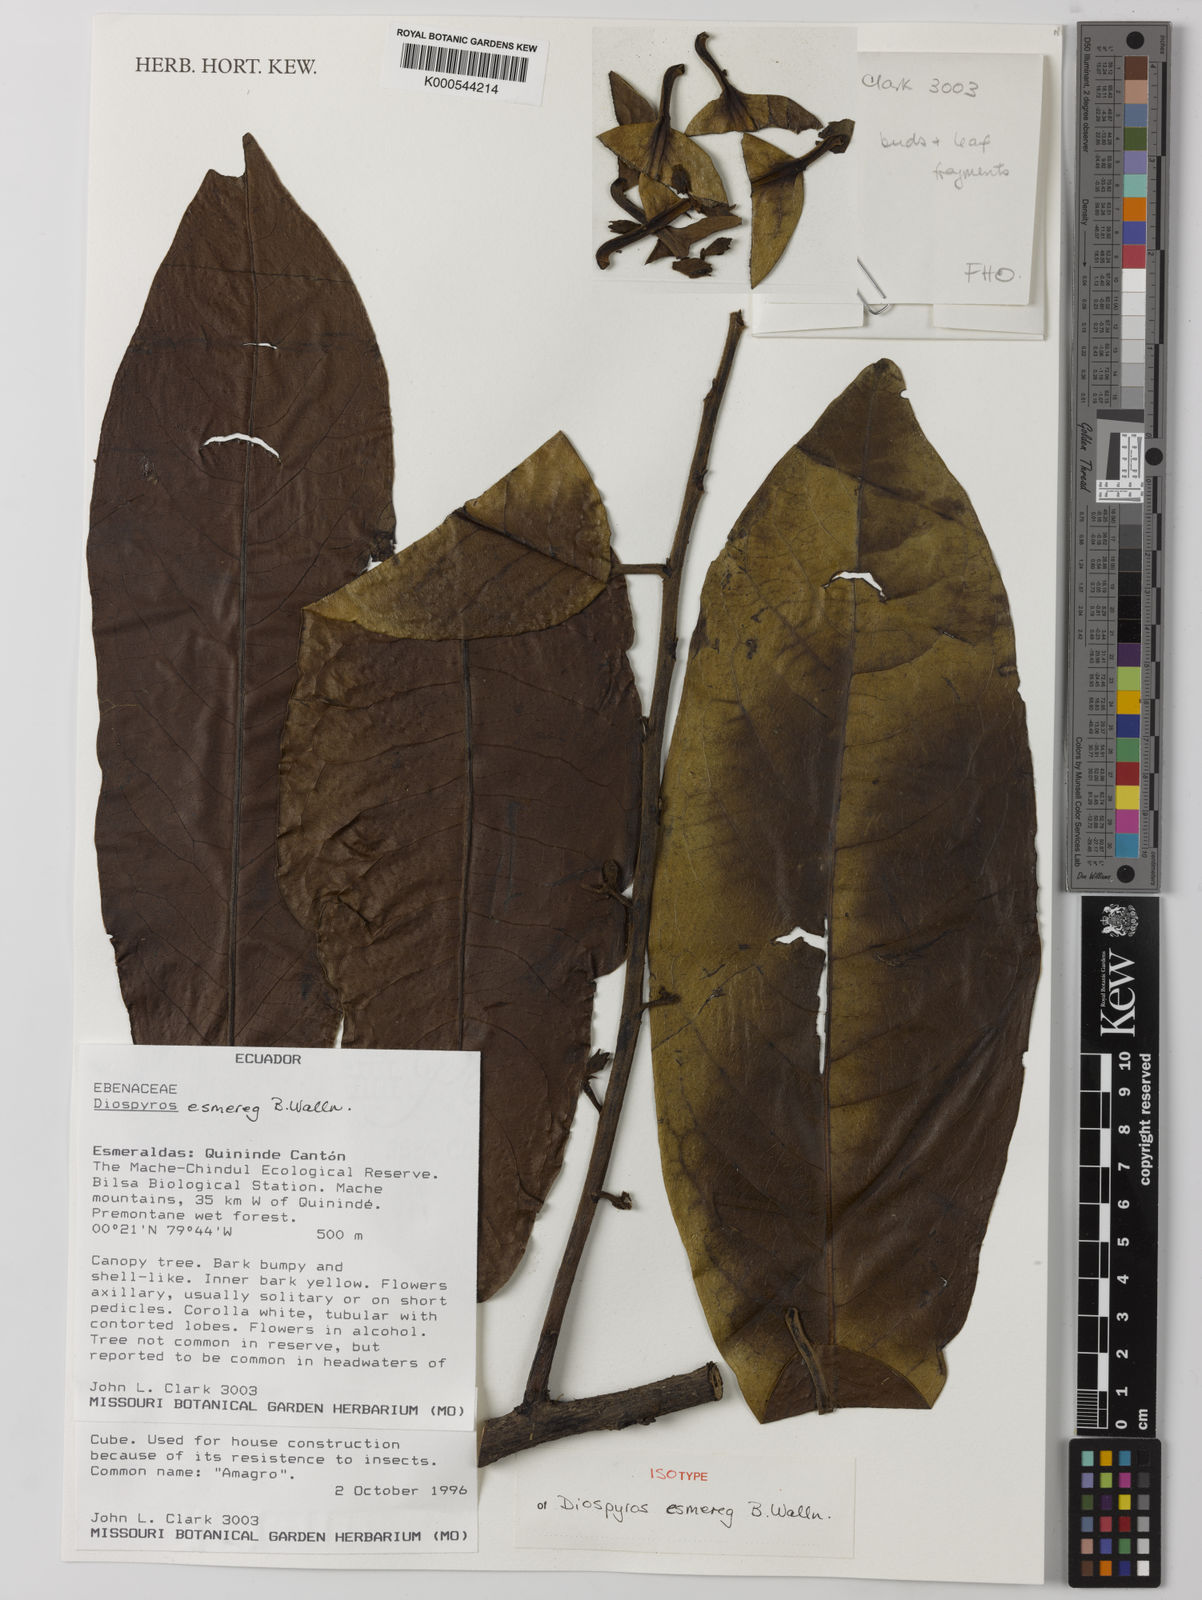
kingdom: Plantae
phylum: Tracheophyta
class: Magnoliopsida
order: Ericales
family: Ebenaceae
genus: Diospyros
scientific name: Diospyros esmereg
